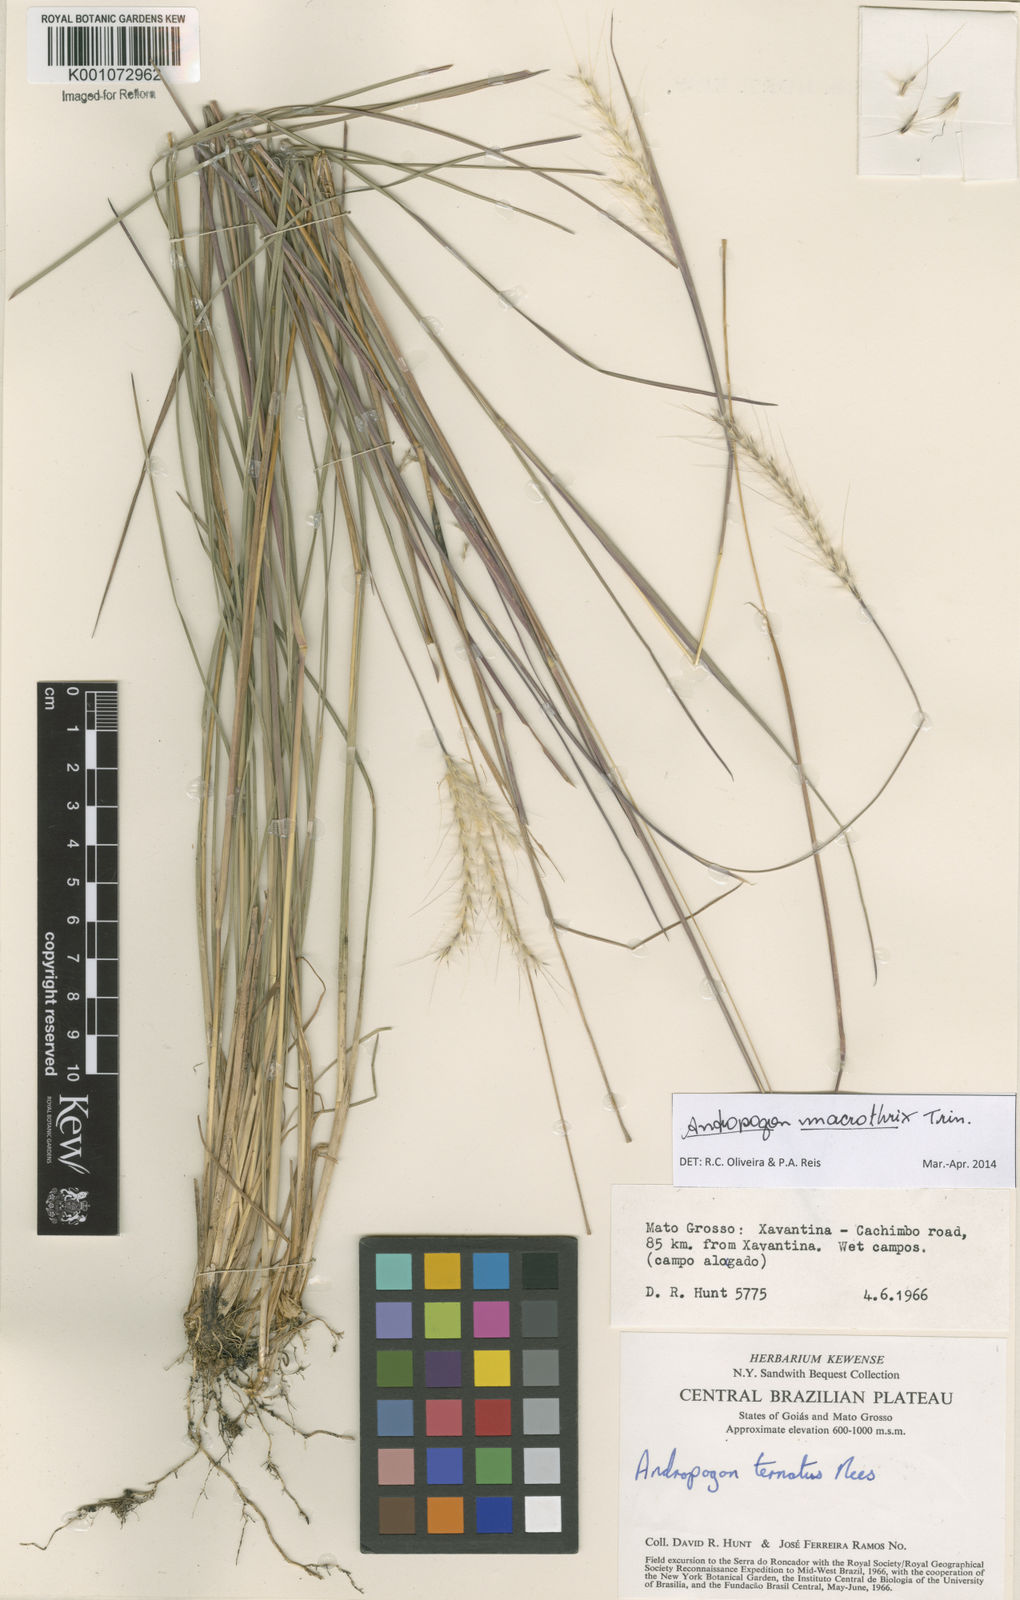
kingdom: Plantae
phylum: Tracheophyta
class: Liliopsida
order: Poales
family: Poaceae
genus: Andropogon
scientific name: Andropogon macrothrix
